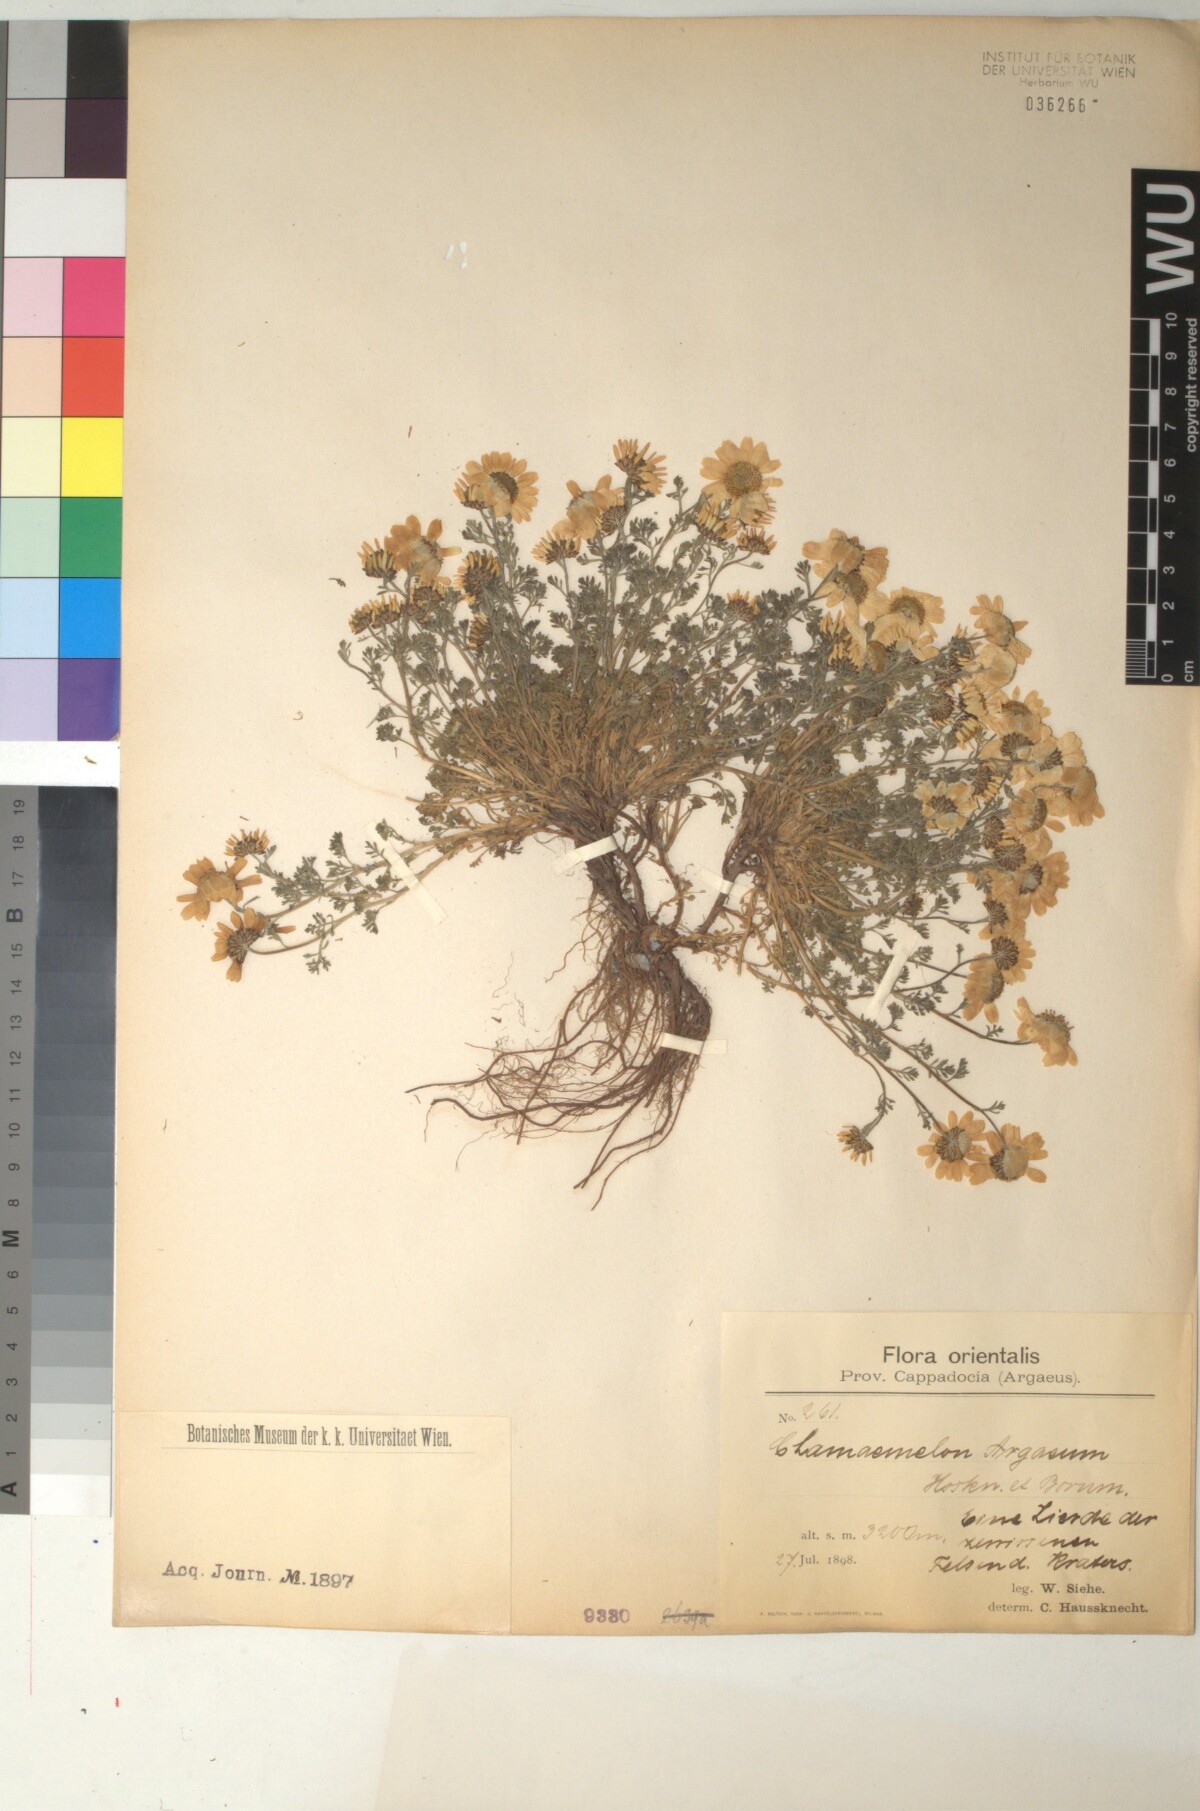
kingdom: Plantae
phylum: Tracheophyta
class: Magnoliopsida
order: Asterales
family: Asteraceae
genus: Anthemis
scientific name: Anthemis cretica
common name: Mountain dog-daisy
